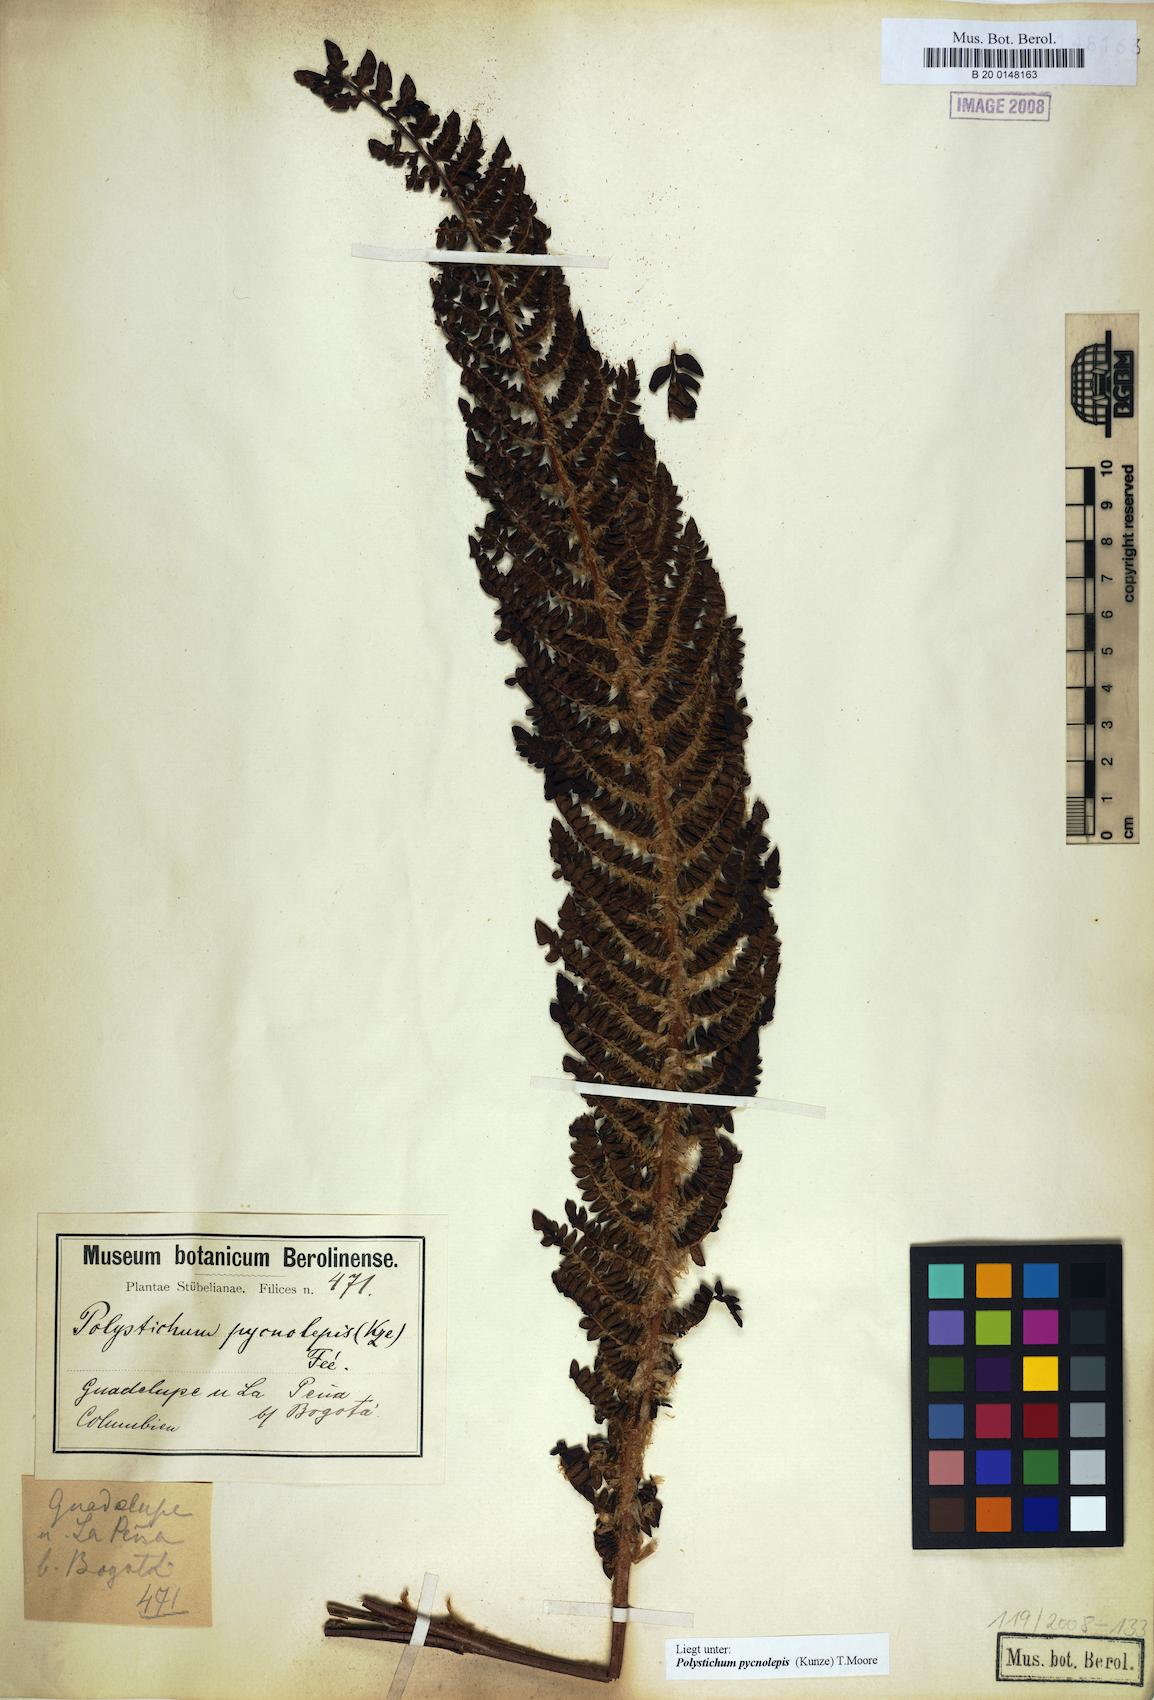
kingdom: Plantae
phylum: Tracheophyta
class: Polypodiopsida
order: Polypodiales
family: Dryopteridaceae
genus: Polystichum
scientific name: Polystichum pycnolepis
